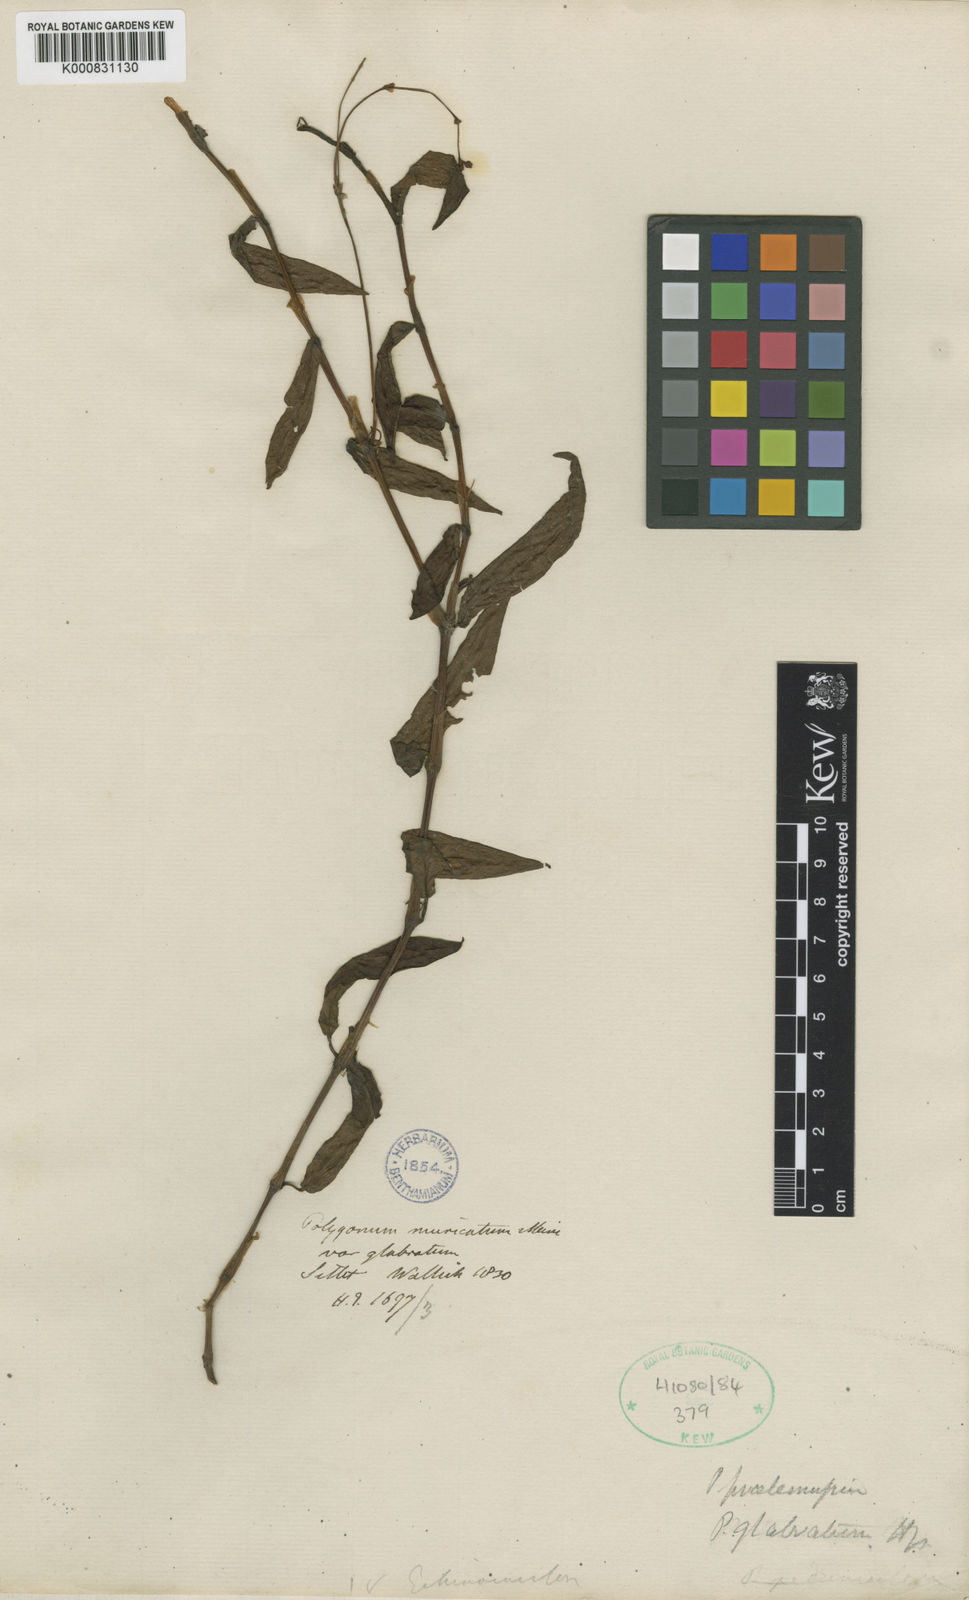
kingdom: Plantae
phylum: Tracheophyta
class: Magnoliopsida
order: Caryophyllales
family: Polygonaceae
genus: Persicaria
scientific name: Persicaria praetermissa
